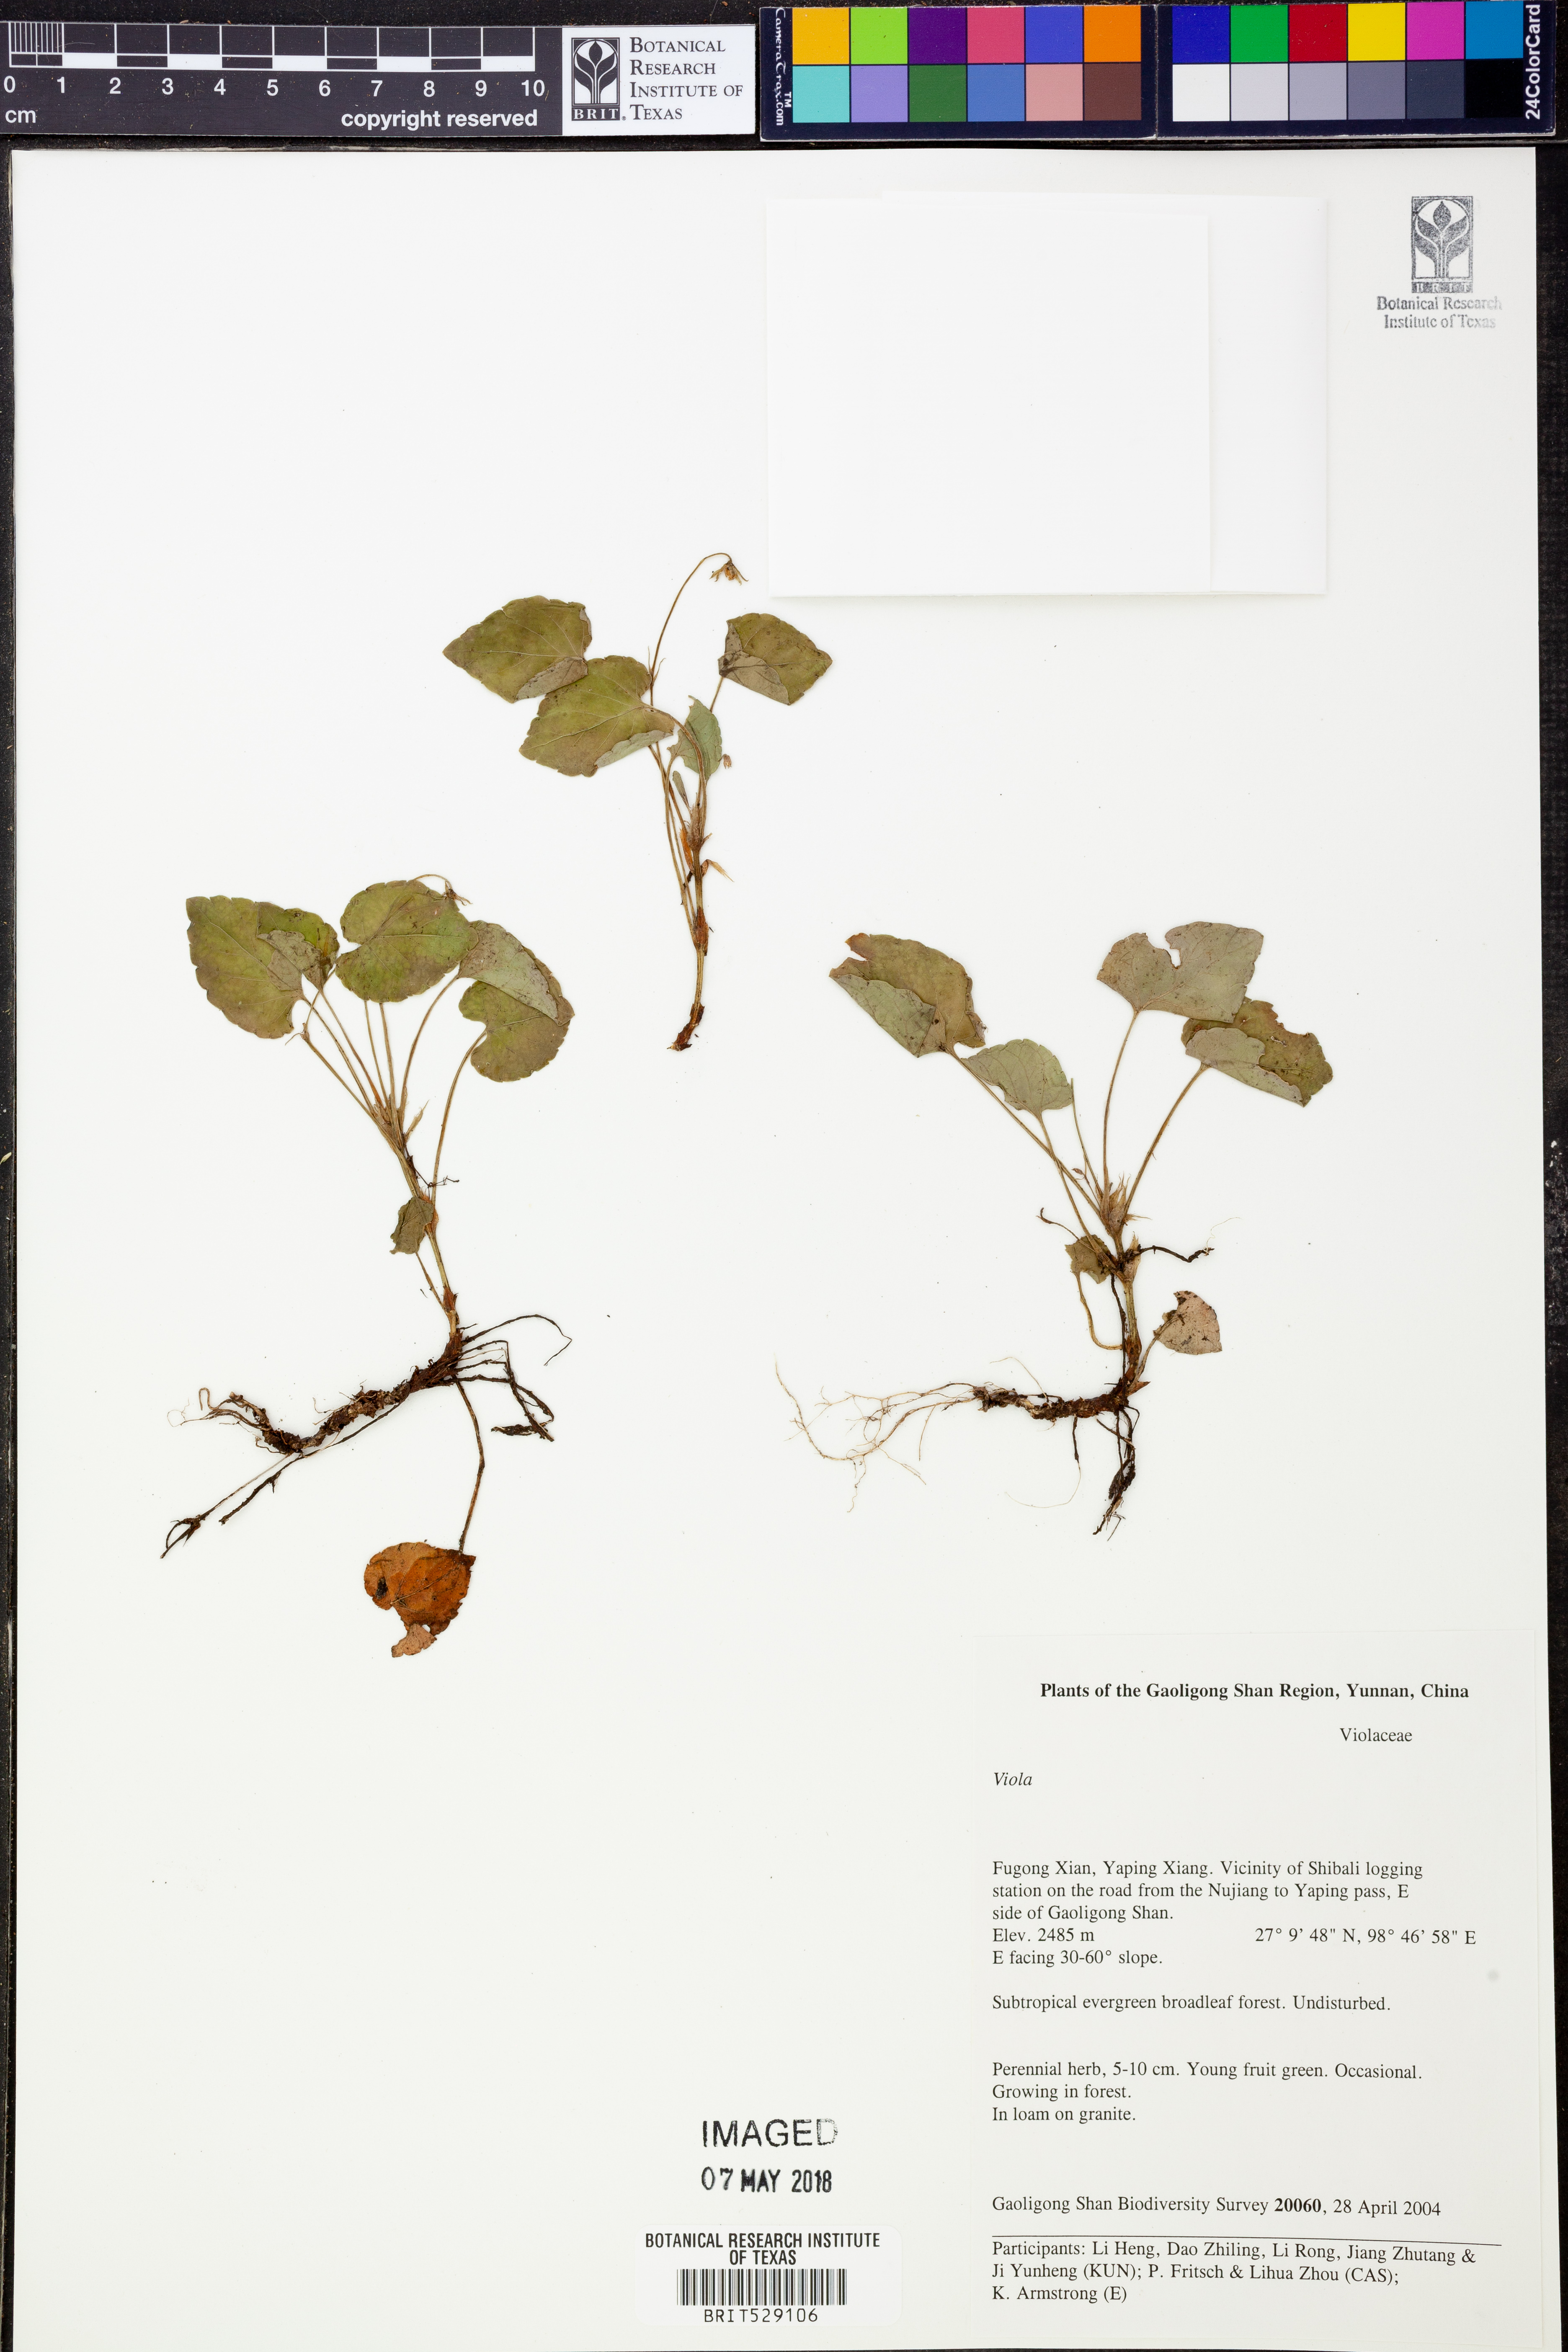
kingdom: Plantae
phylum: Tracheophyta
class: Magnoliopsida
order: Malpighiales
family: Violaceae
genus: Viola
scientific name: Viola
